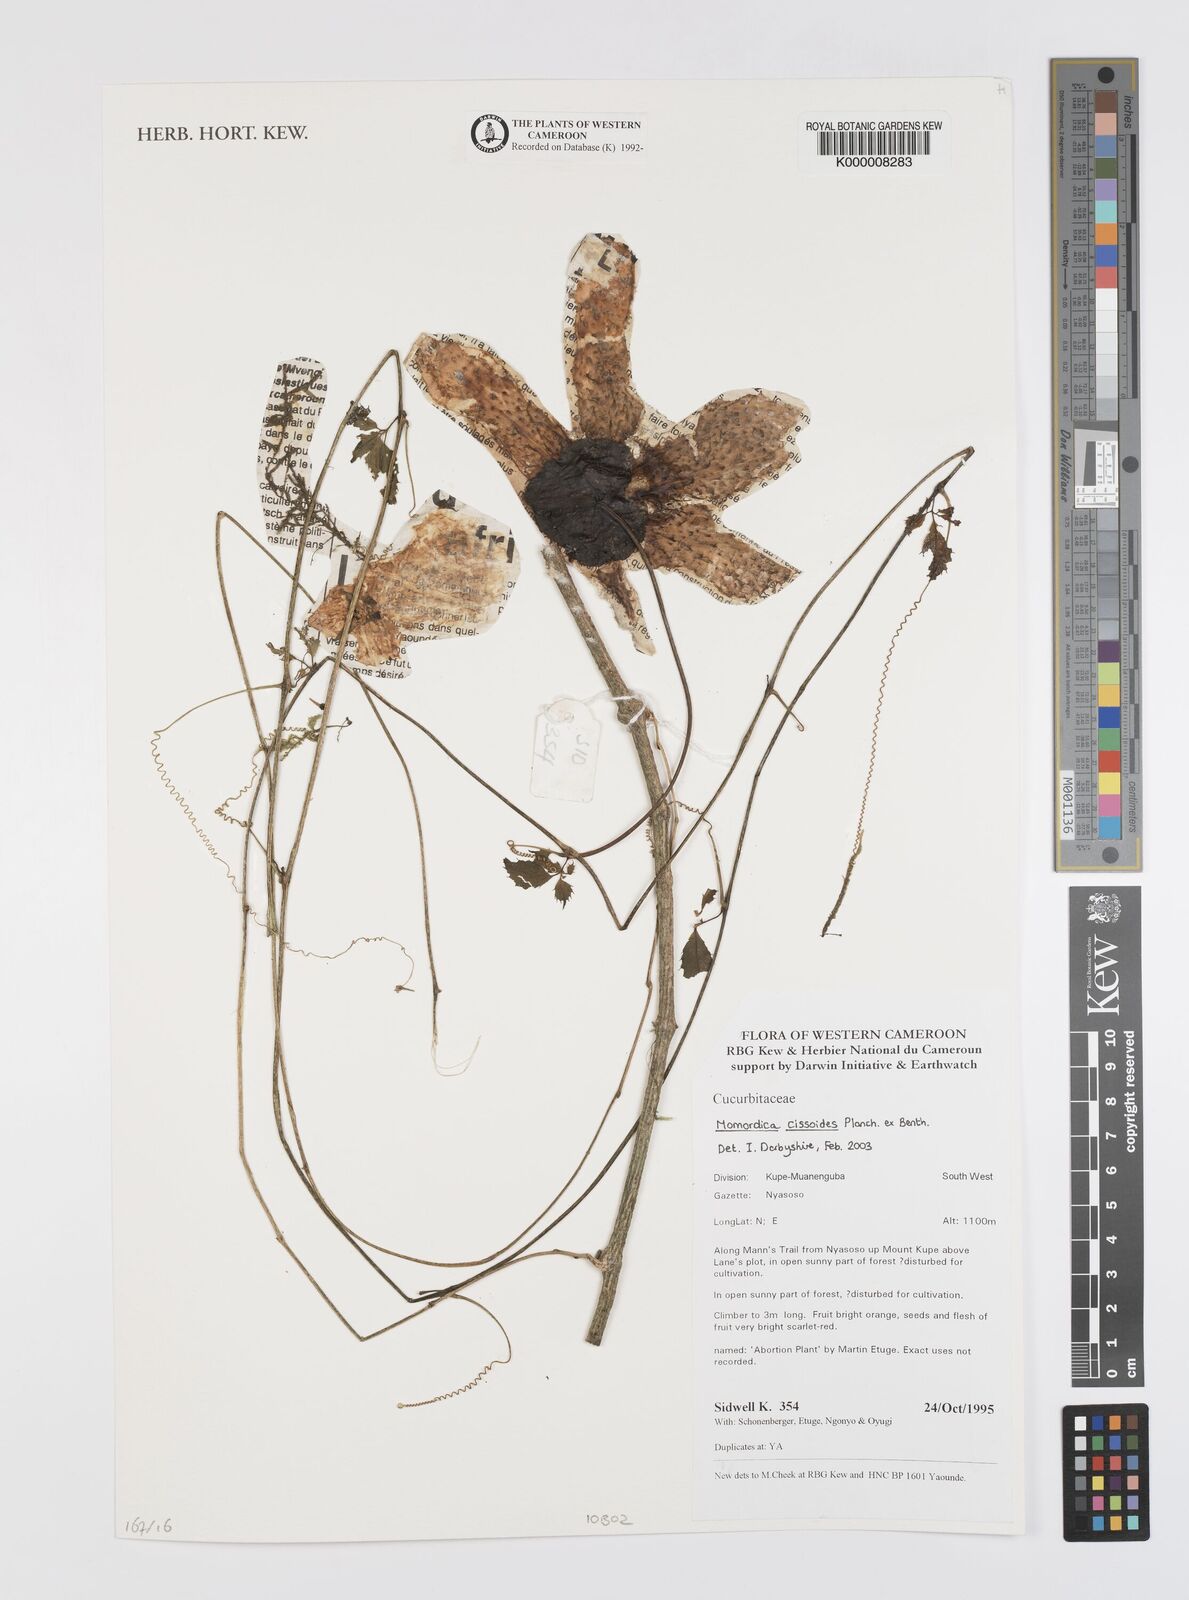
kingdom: Plantae
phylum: Tracheophyta
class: Magnoliopsida
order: Cucurbitales
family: Cucurbitaceae
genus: Momordica
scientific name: Momordica cissoides
